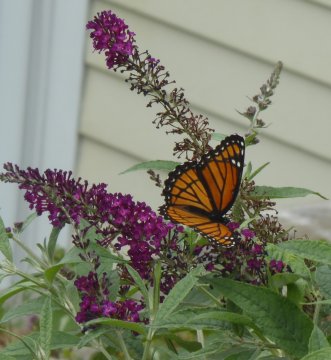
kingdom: Animalia
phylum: Arthropoda
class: Insecta
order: Lepidoptera
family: Nymphalidae
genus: Limenitis
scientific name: Limenitis archippus
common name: Viceroy
